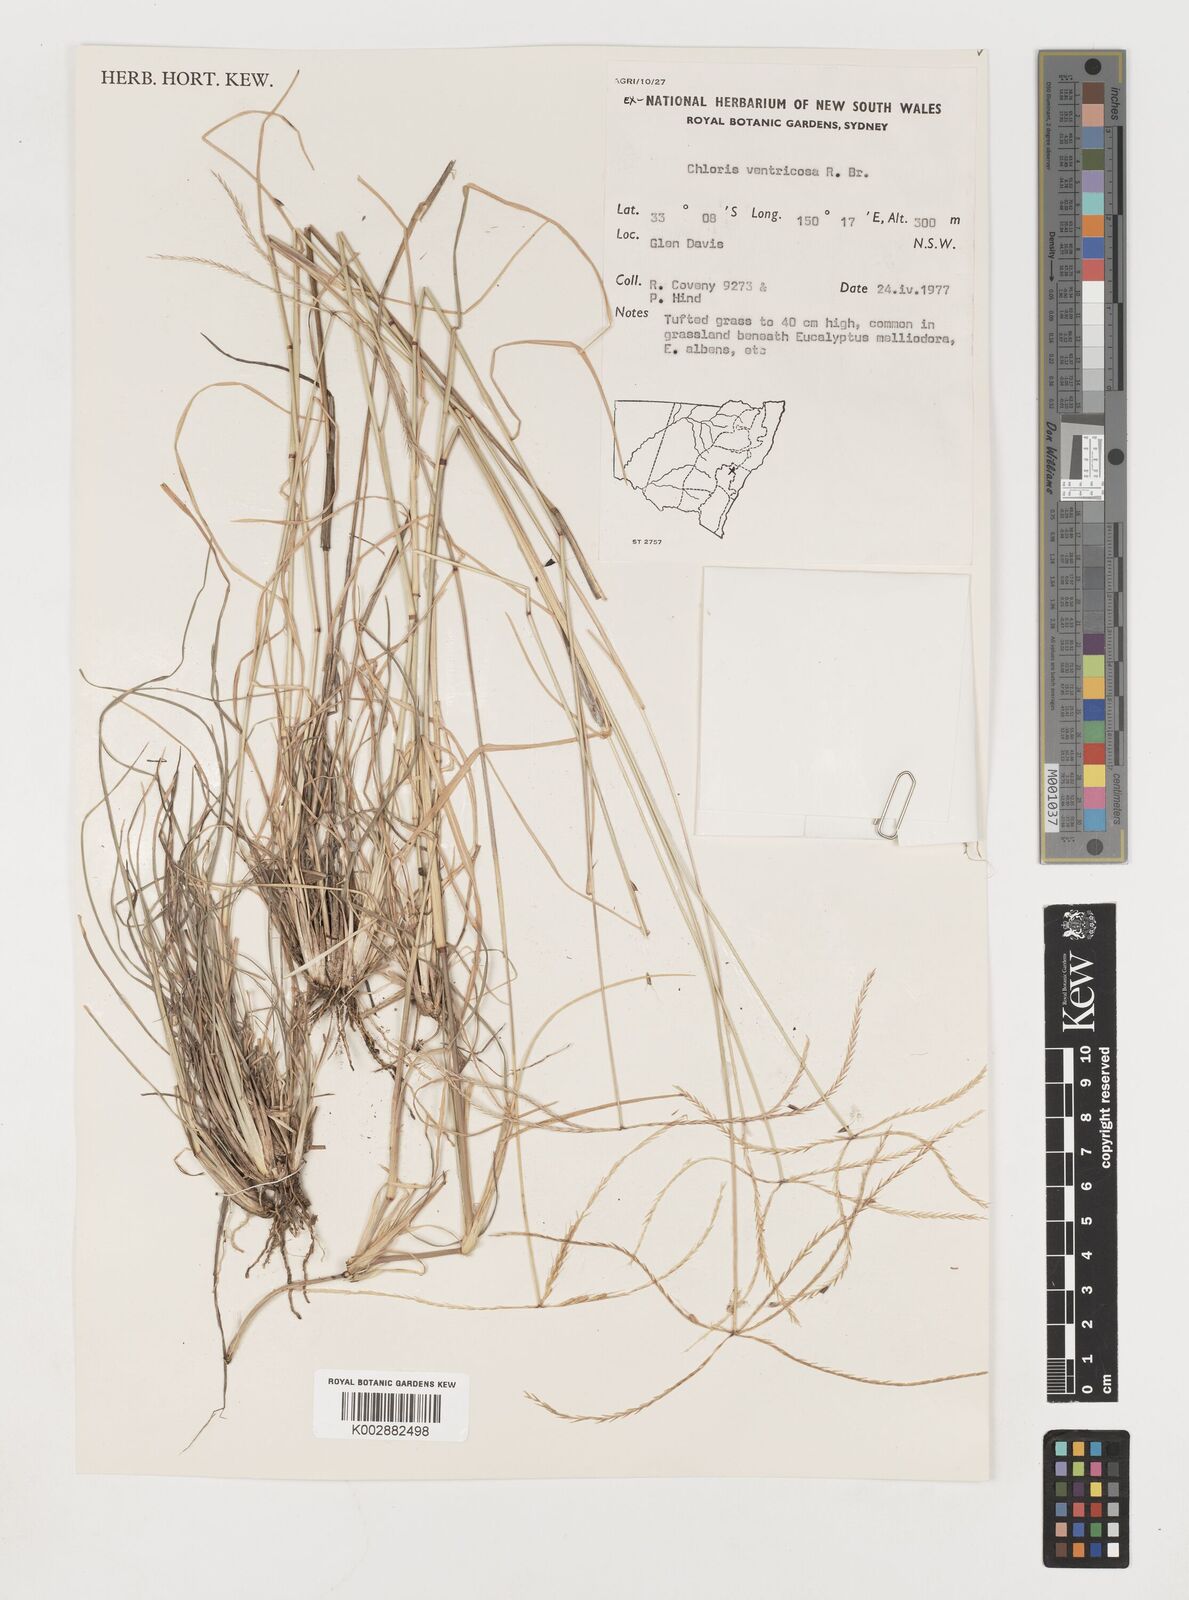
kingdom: Plantae
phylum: Tracheophyta
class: Liliopsida
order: Poales
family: Poaceae
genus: Chloris
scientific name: Chloris ventricosa
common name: Australian windmill grass
